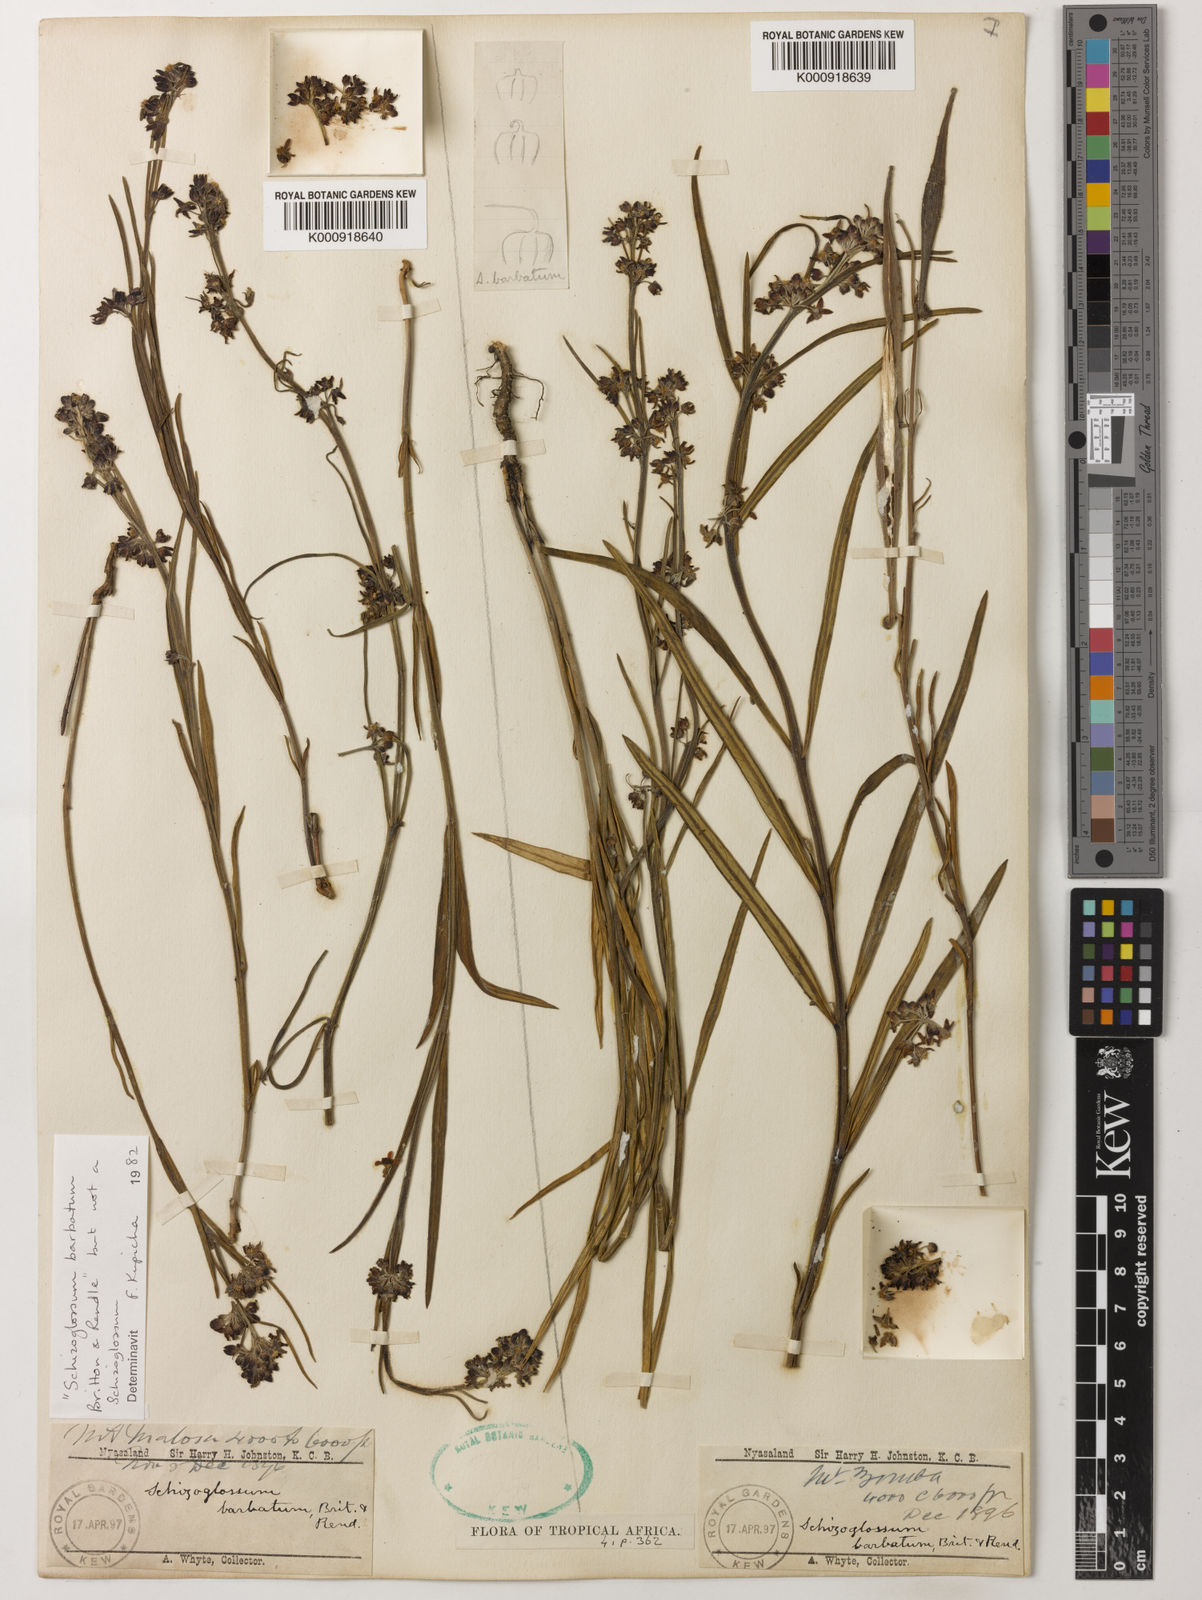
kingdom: Plantae
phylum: Tracheophyta
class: Magnoliopsida
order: Gentianales
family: Apocynaceae
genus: Schizoglossum
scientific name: Schizoglossum barbatum
